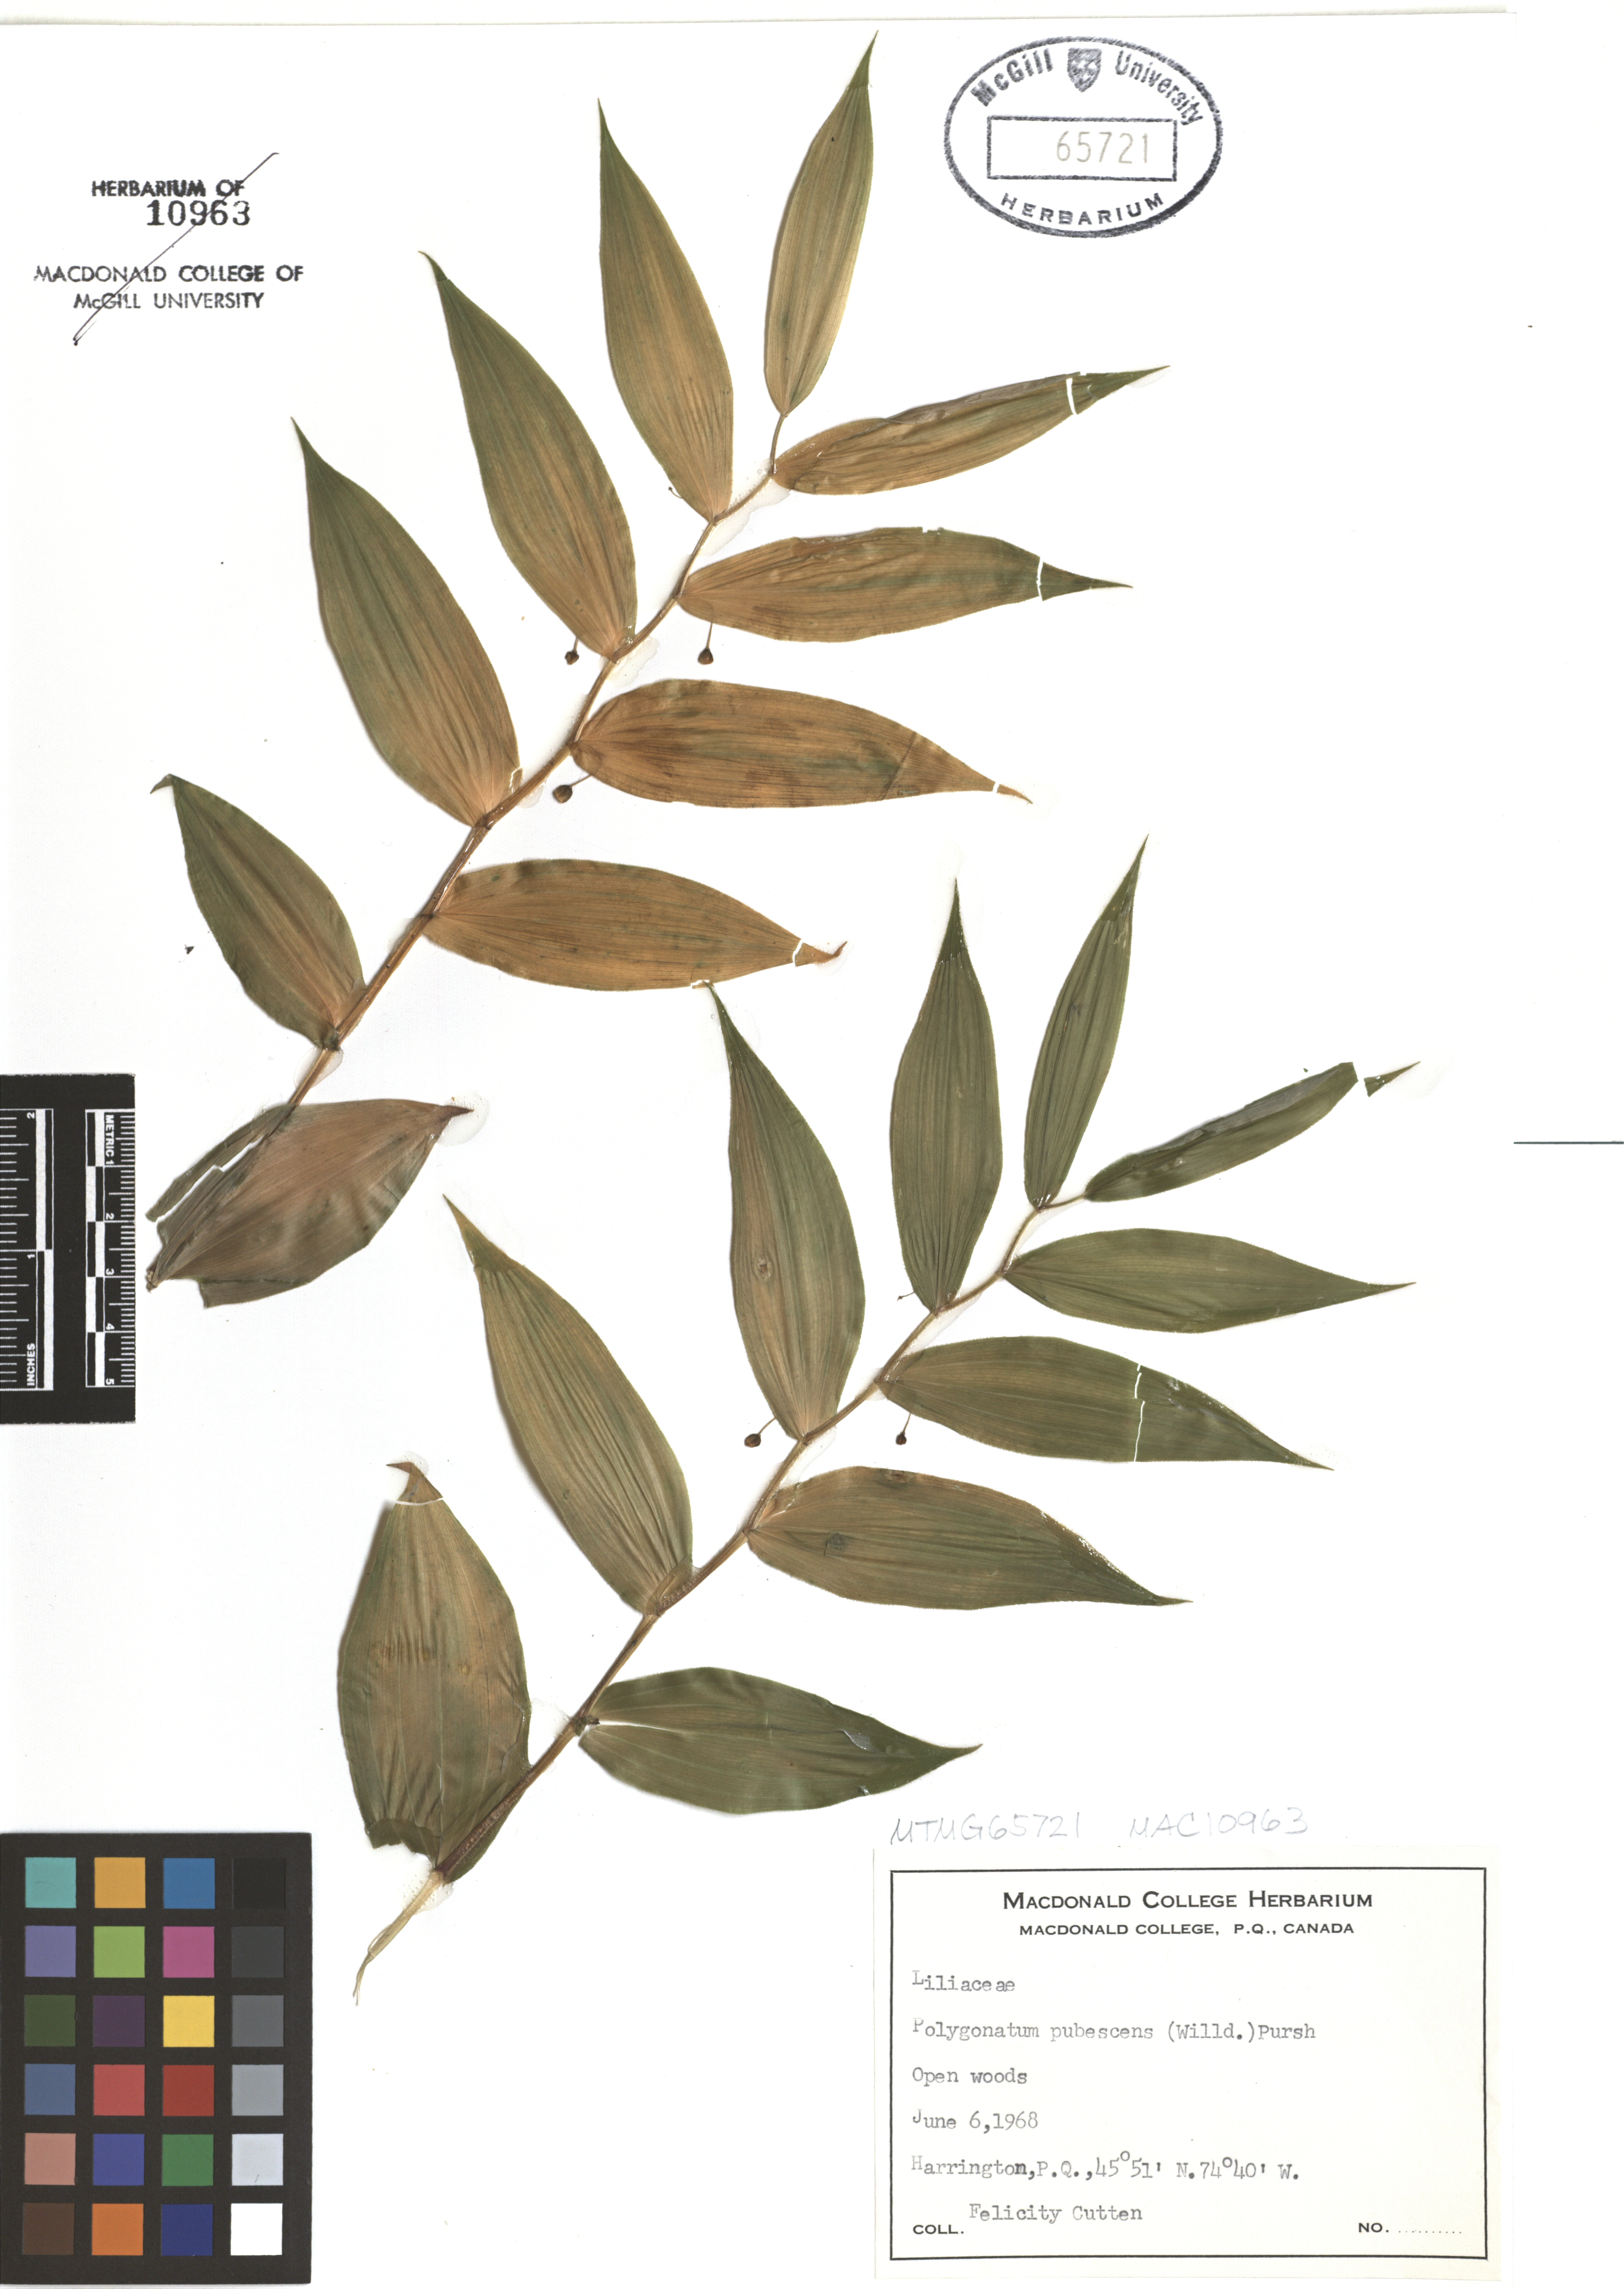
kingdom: Plantae
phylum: Tracheophyta
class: Liliopsida
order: Asparagales
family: Asparagaceae
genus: Polygonatum
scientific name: Polygonatum pubescens
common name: Downy solomon's seal
